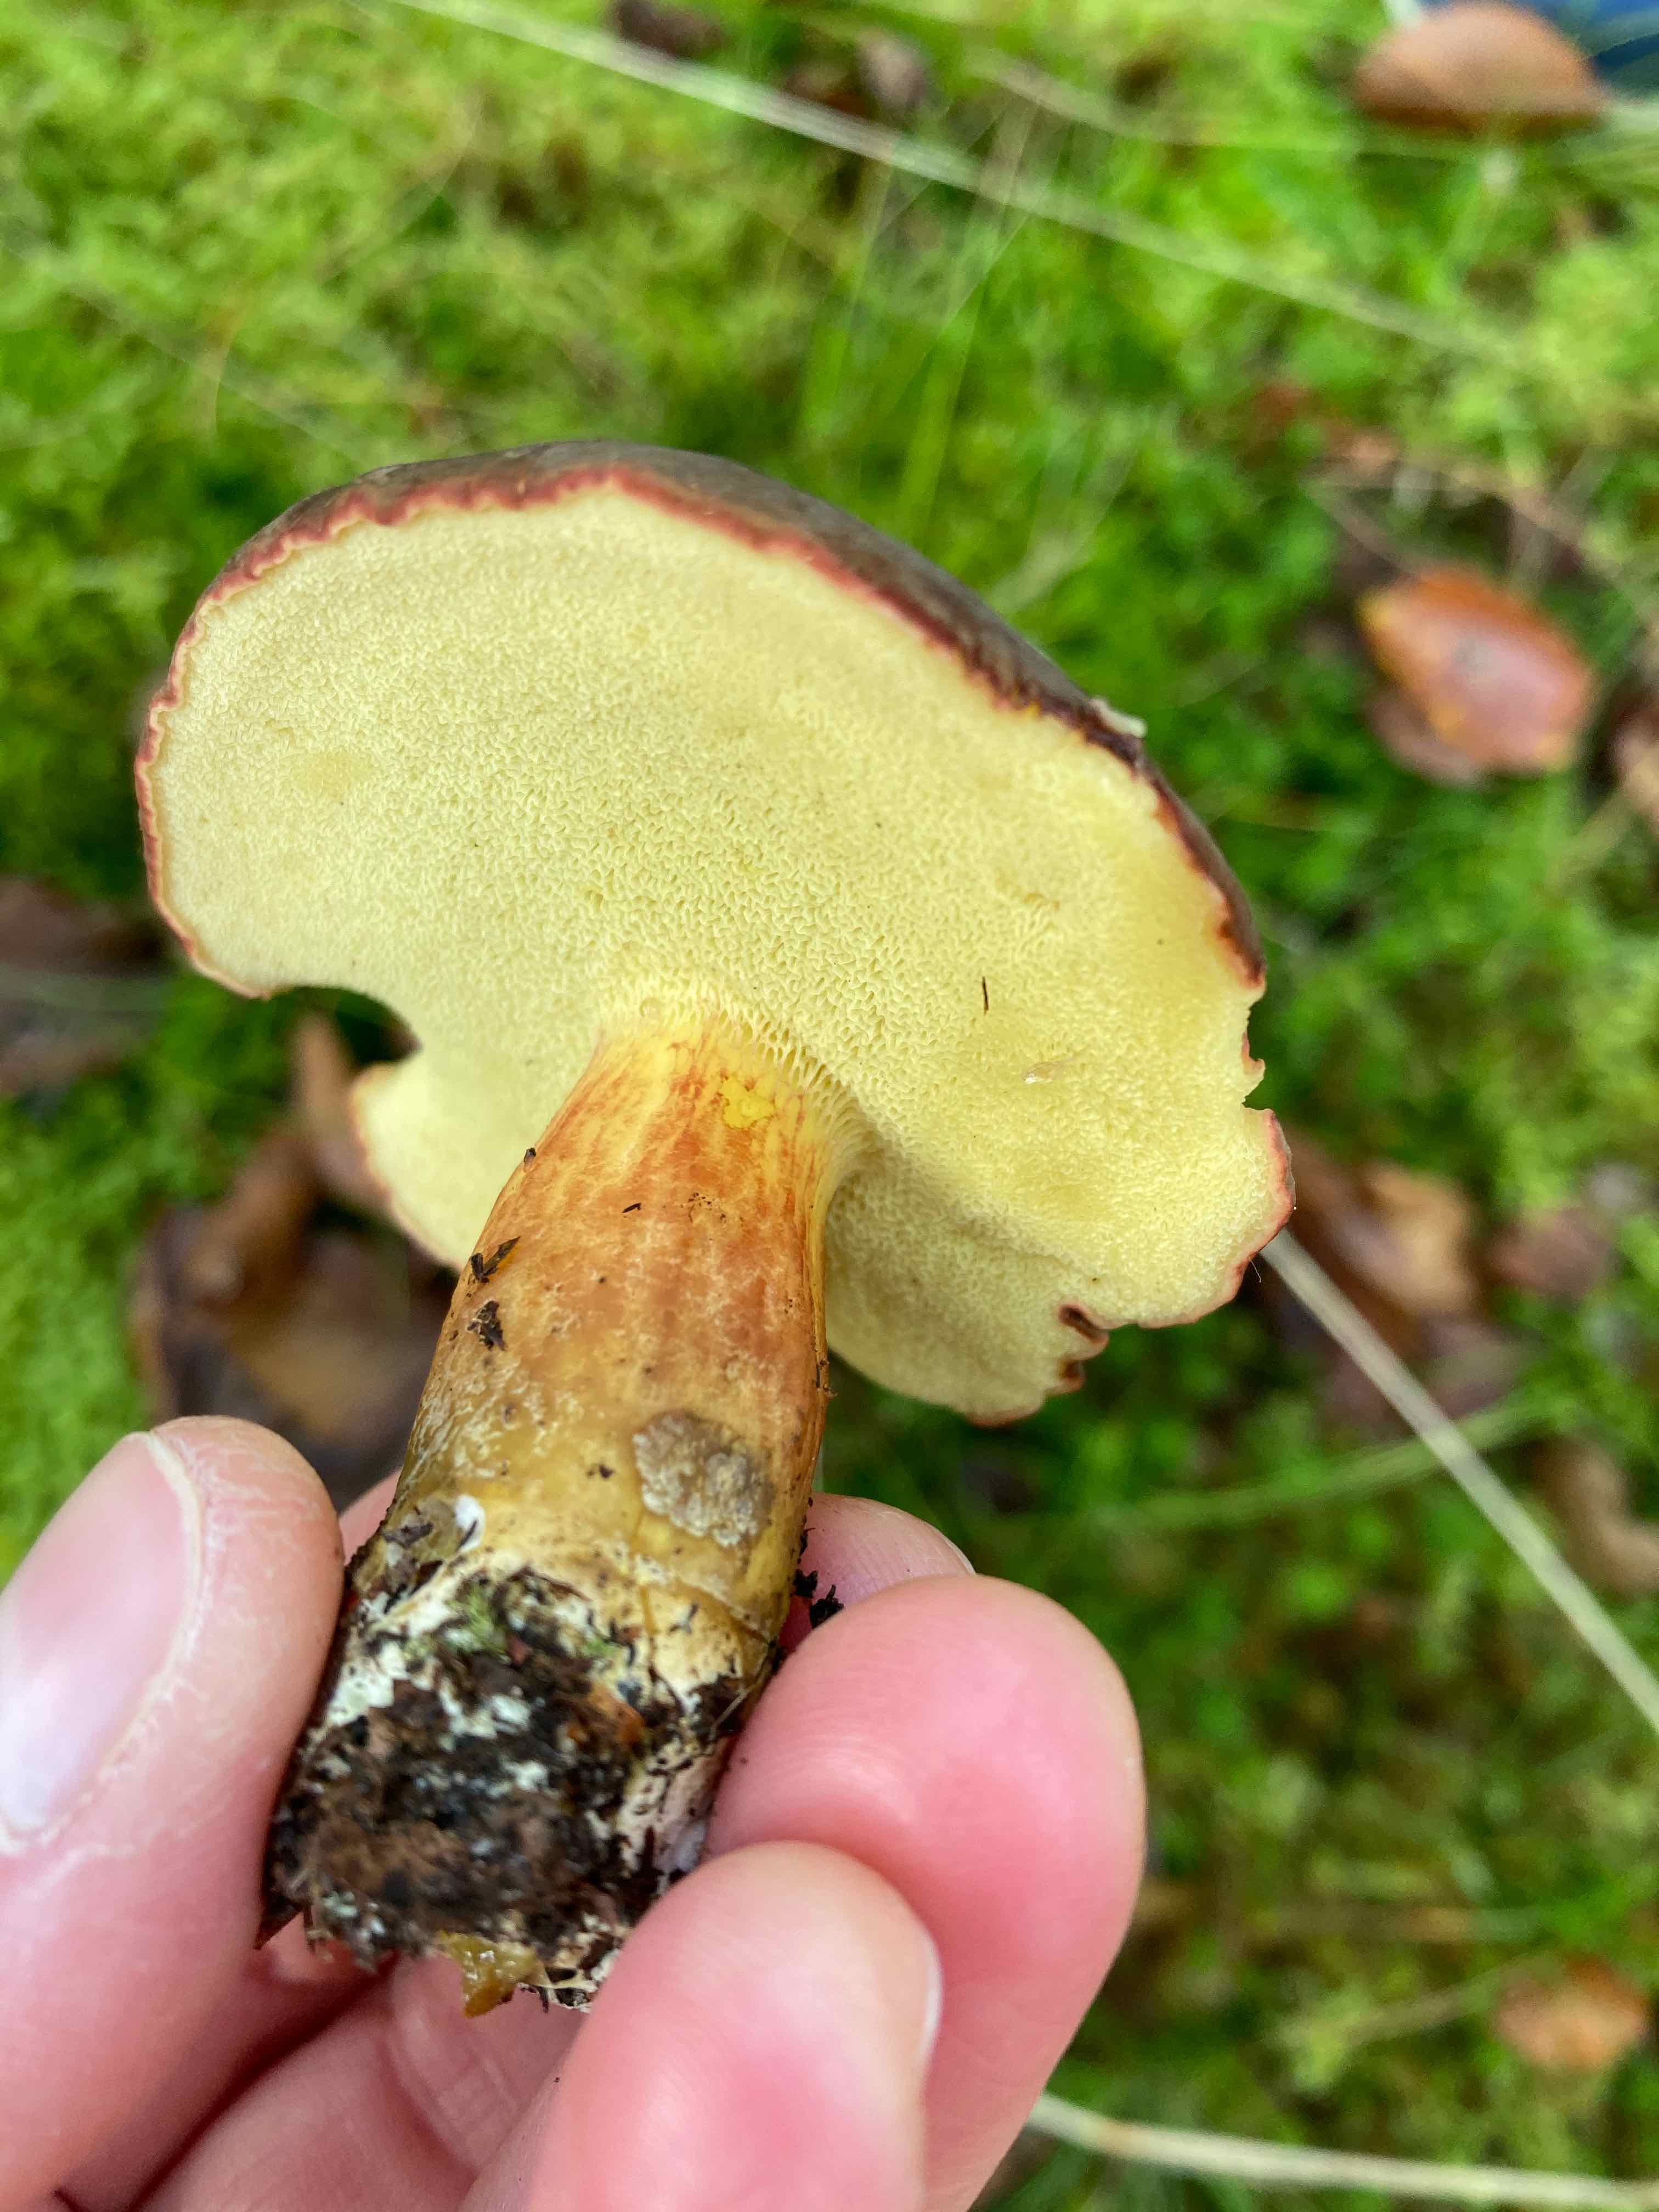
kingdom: Fungi
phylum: Basidiomycota
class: Agaricomycetes
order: Boletales
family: Boletaceae
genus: Xerocomellus
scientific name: Xerocomellus pruinatus
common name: dugget rørhat
